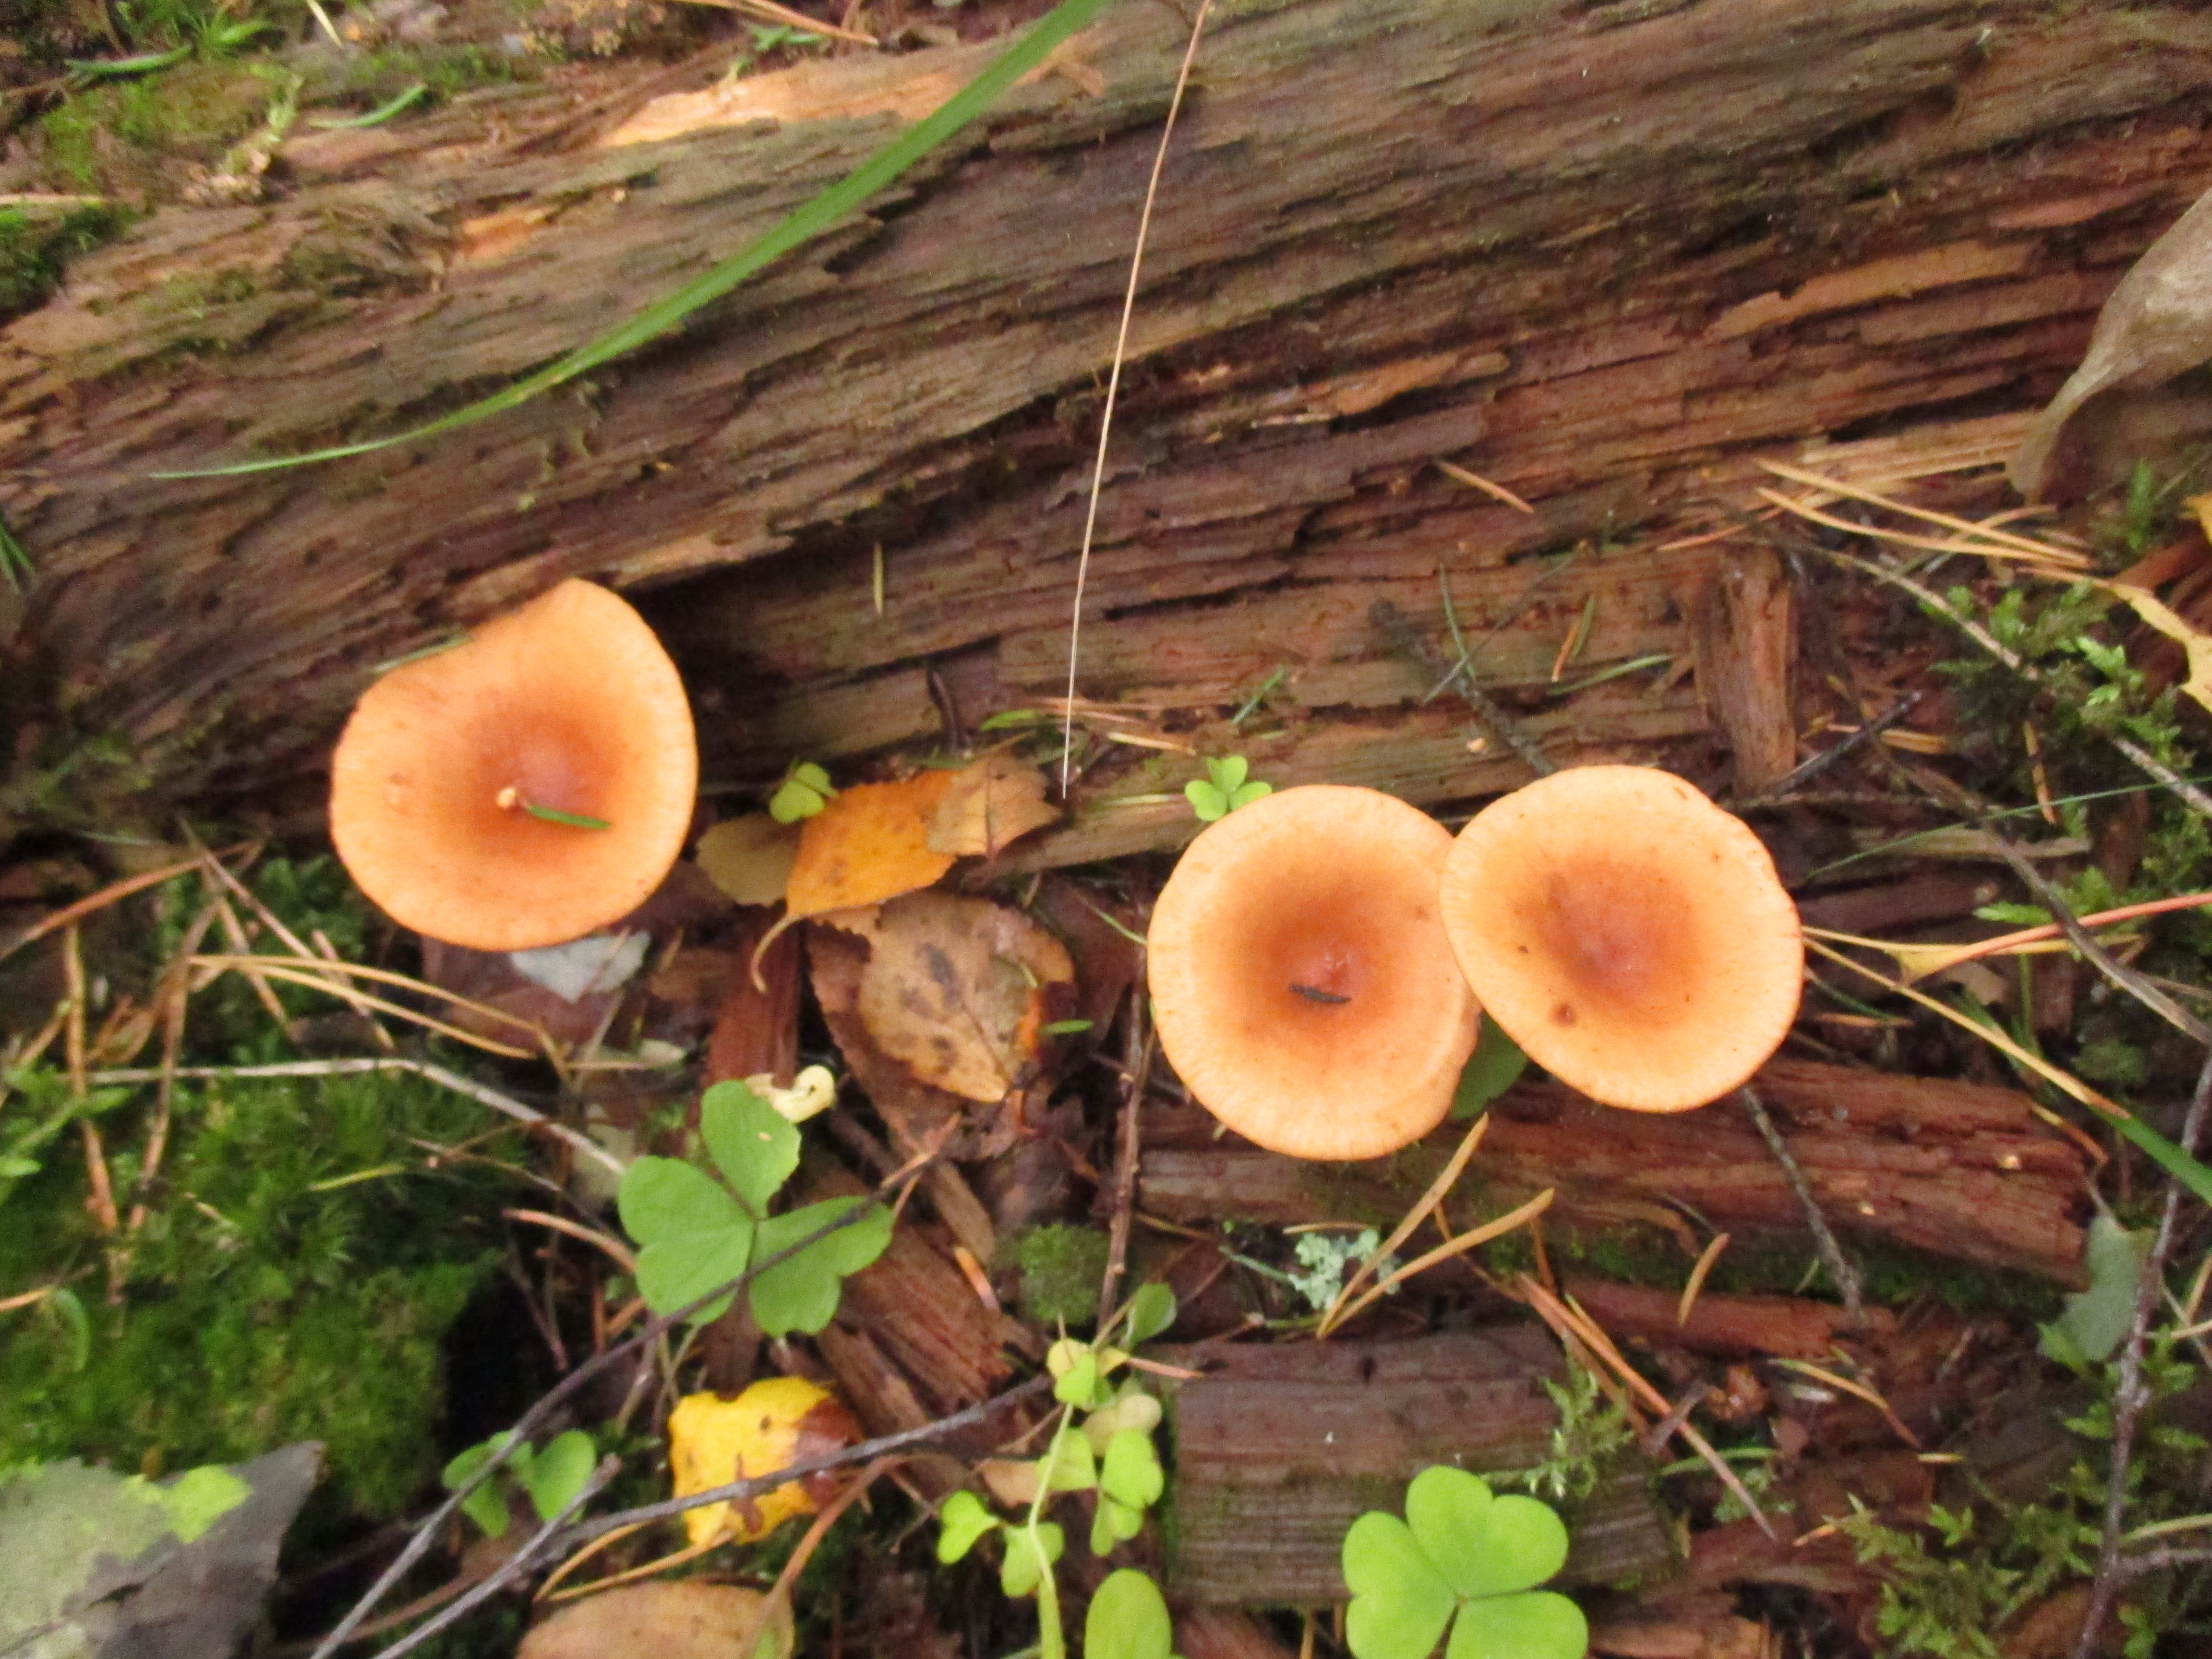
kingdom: Fungi
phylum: Basidiomycota
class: Agaricomycetes
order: Russulales
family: Russulaceae
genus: Lactarius
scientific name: Lactarius tabidus
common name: Birch milkcap
